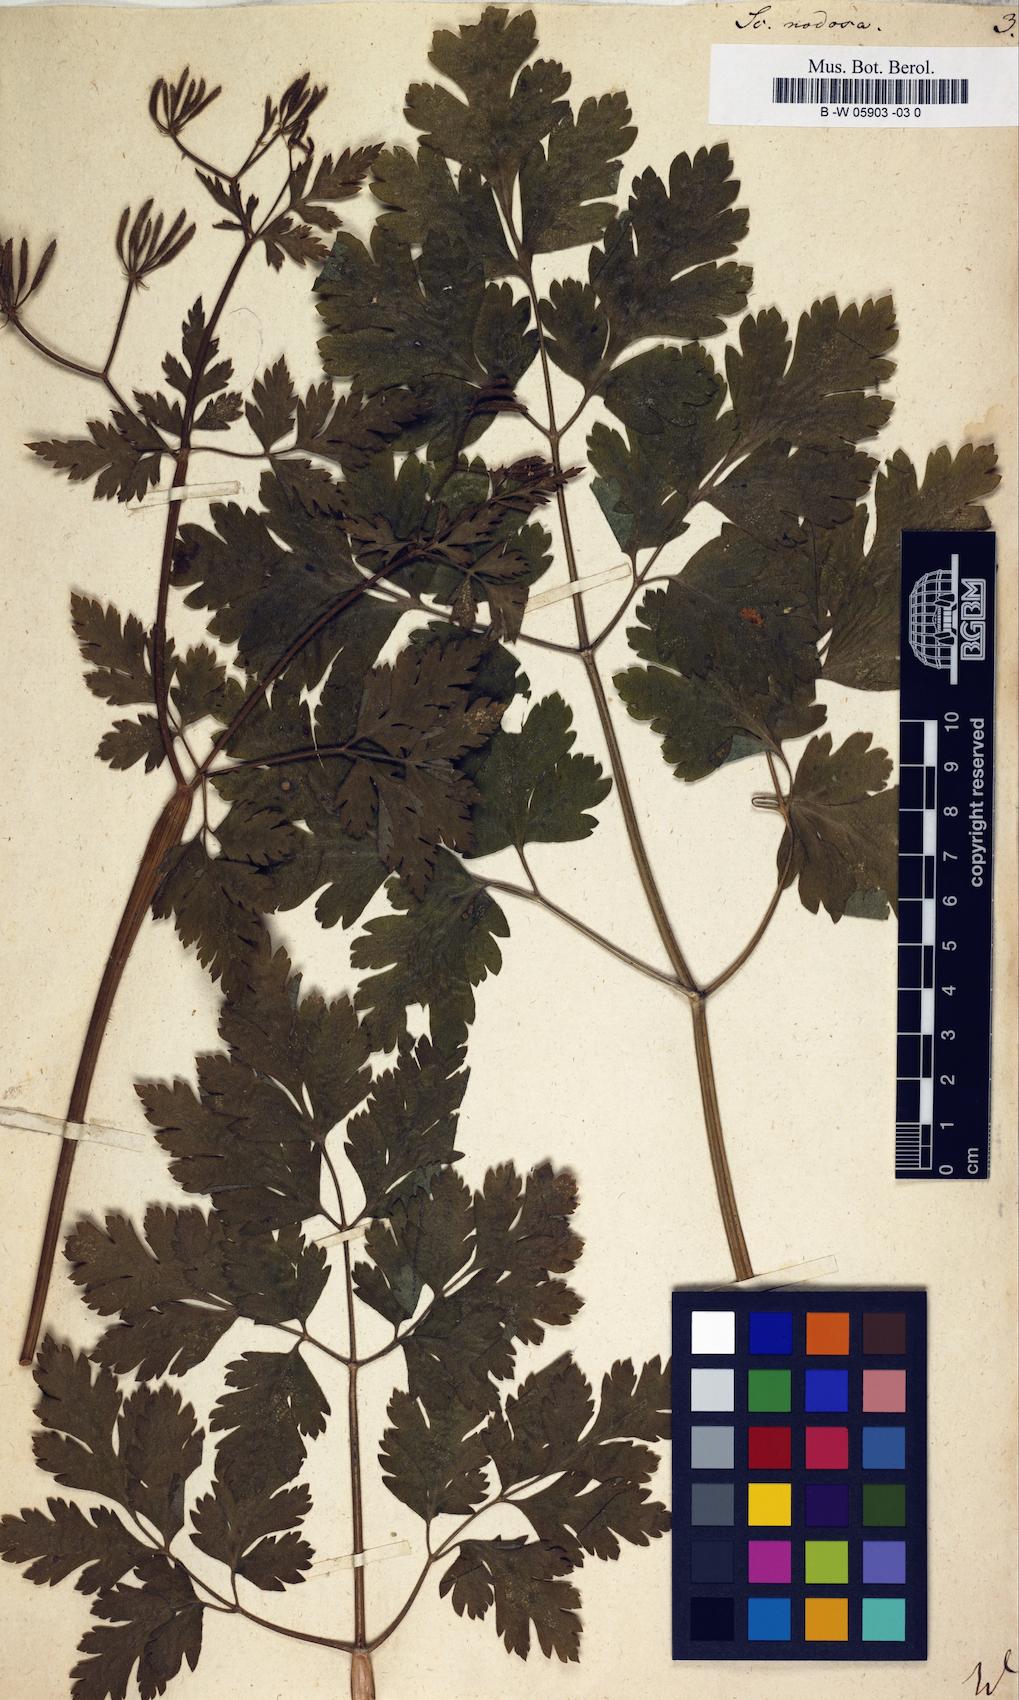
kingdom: Plantae
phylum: Tracheophyta
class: Magnoliopsida
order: Apiales
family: Apiaceae
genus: Chaerophyllum
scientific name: Chaerophyllum nodosum
